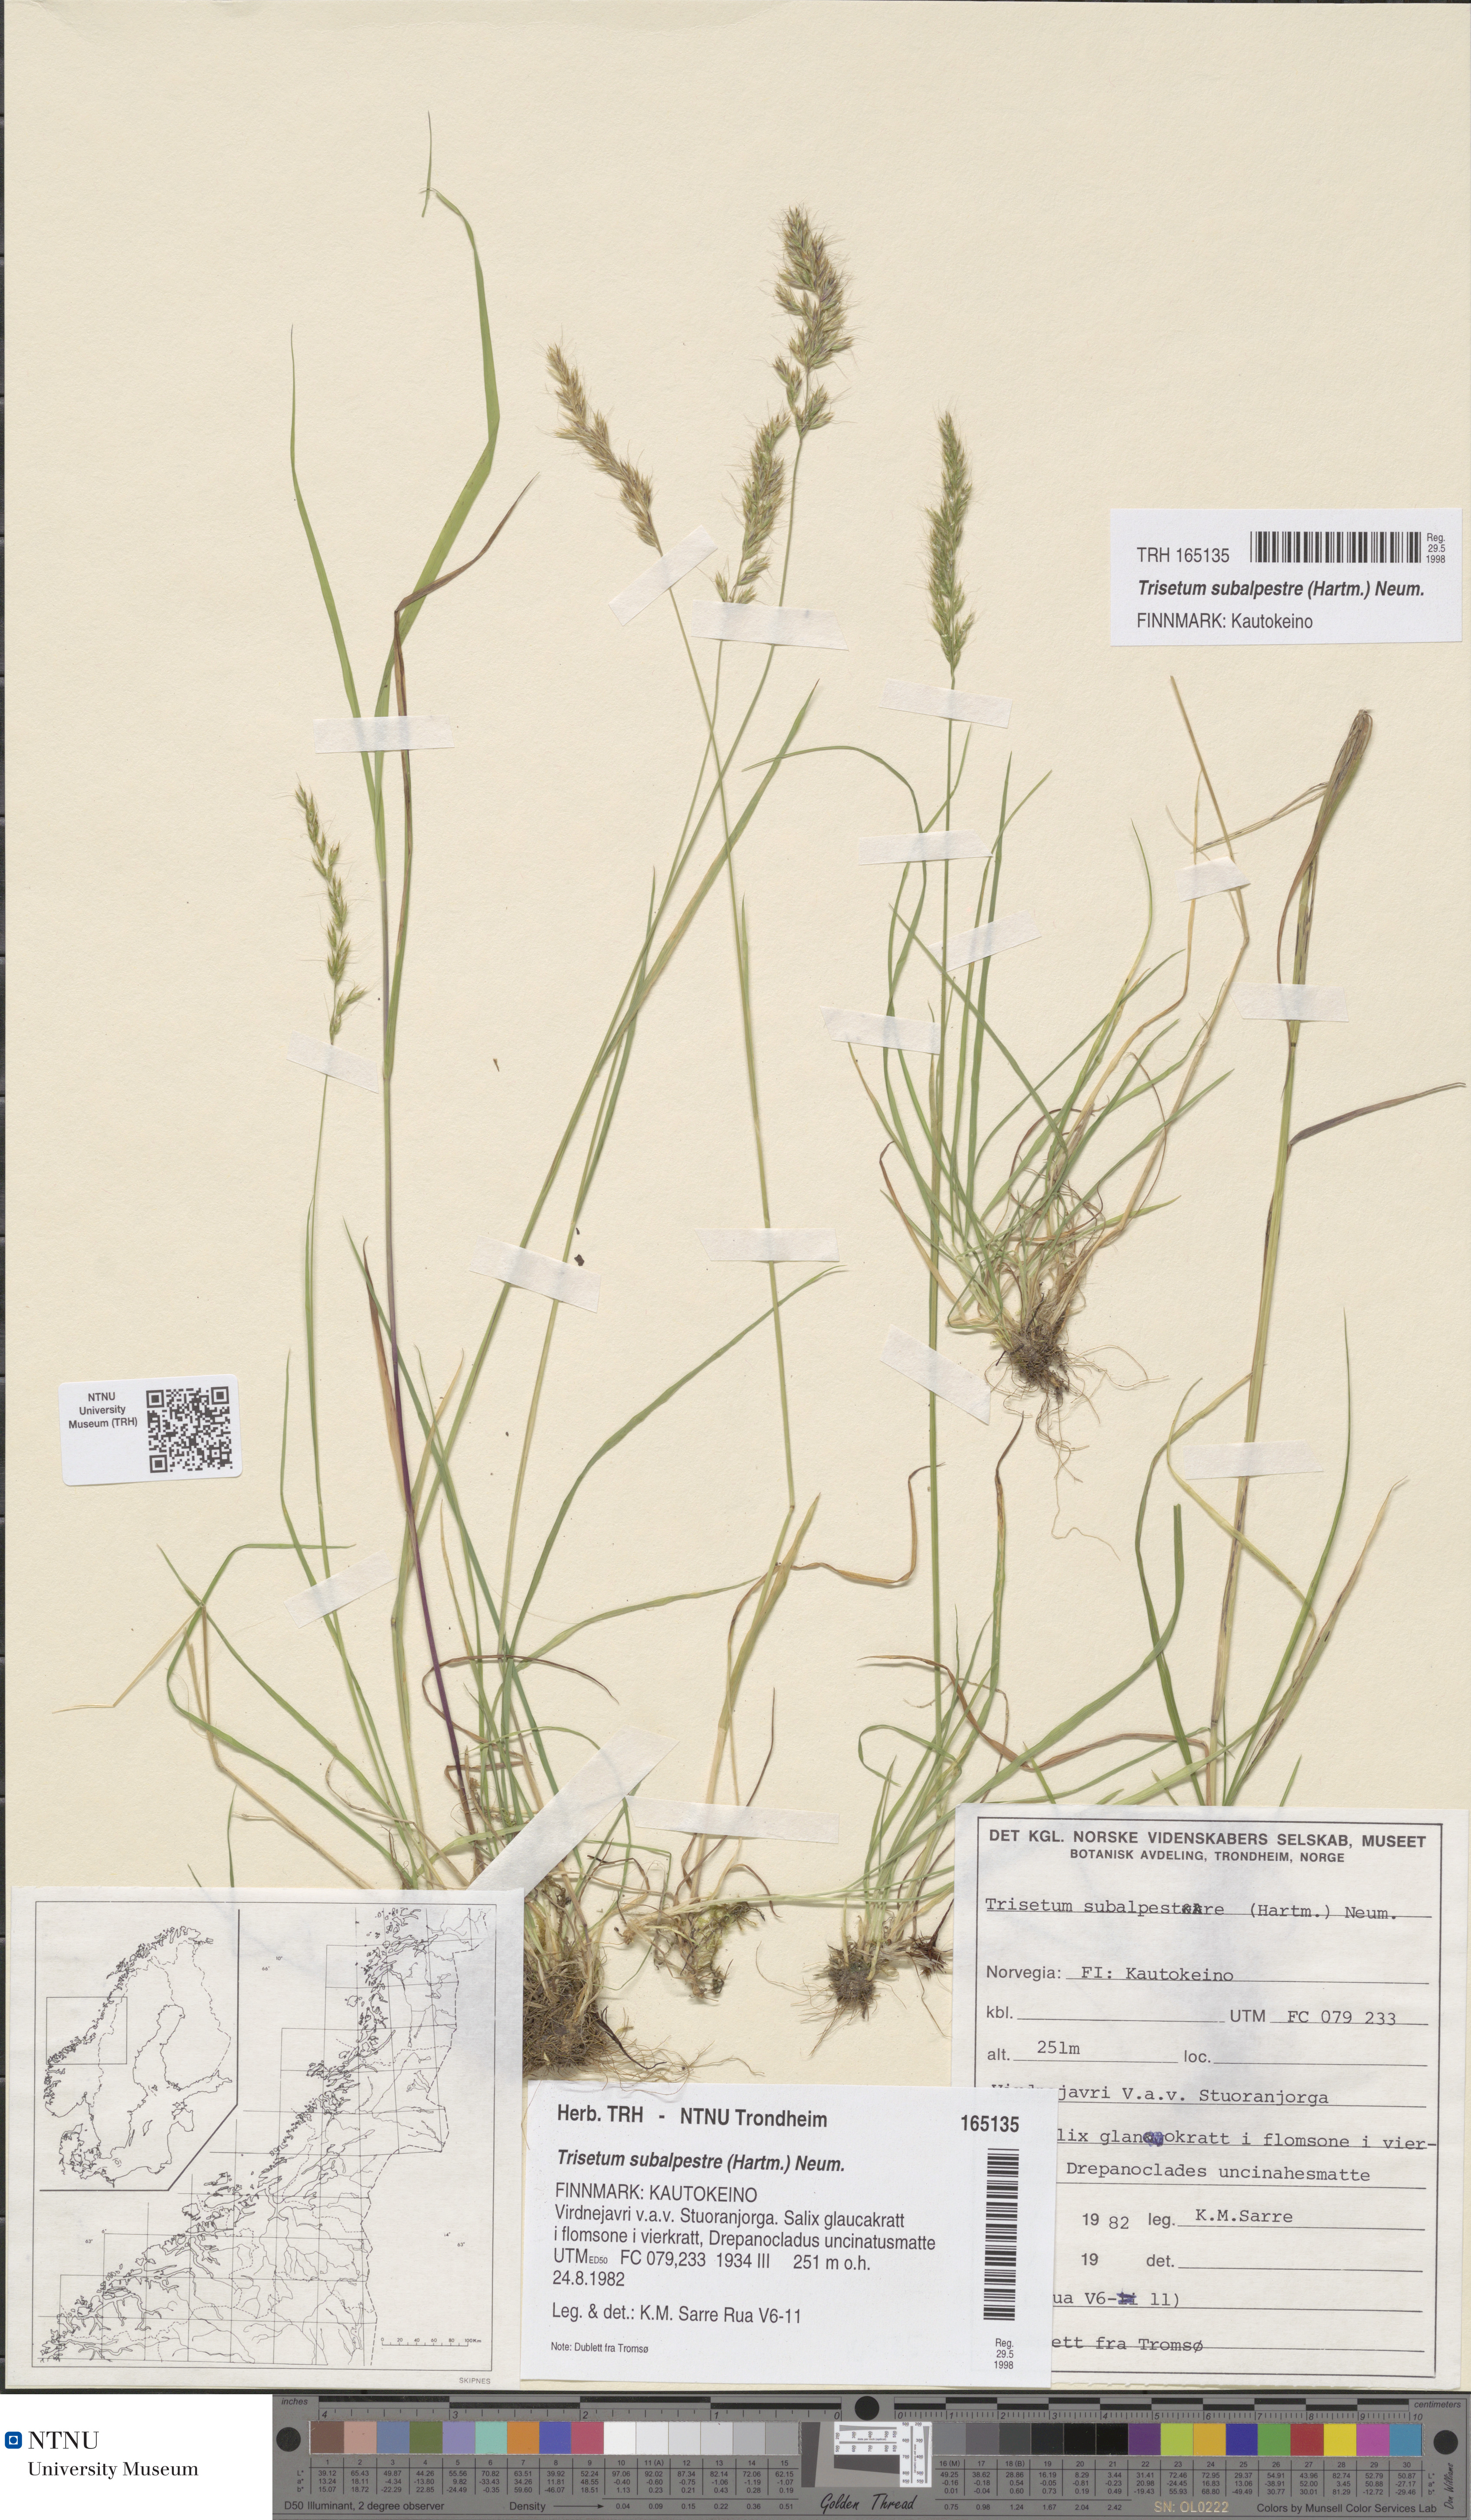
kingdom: Plantae
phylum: Tracheophyta
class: Liliopsida
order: Poales
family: Poaceae
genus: Koeleria
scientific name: Koeleria subalpestris
